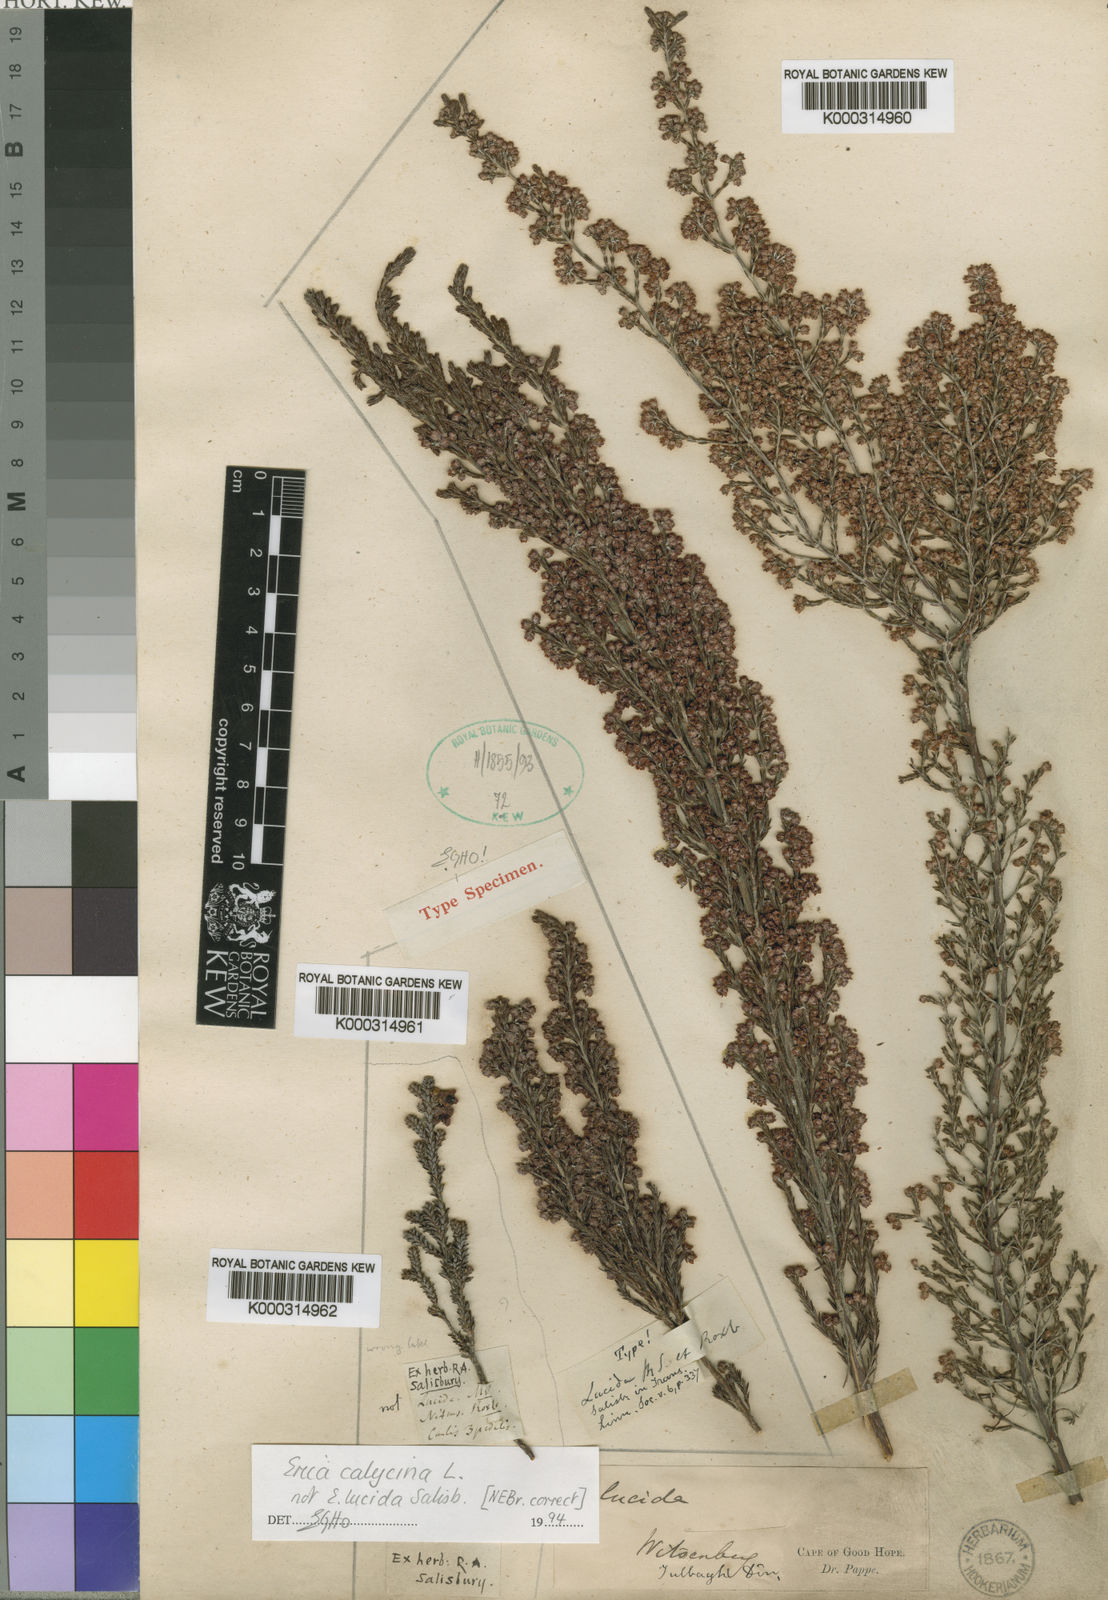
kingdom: Plantae
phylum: Tracheophyta
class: Magnoliopsida
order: Ericales
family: Ericaceae
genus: Erica
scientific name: Erica calycina
